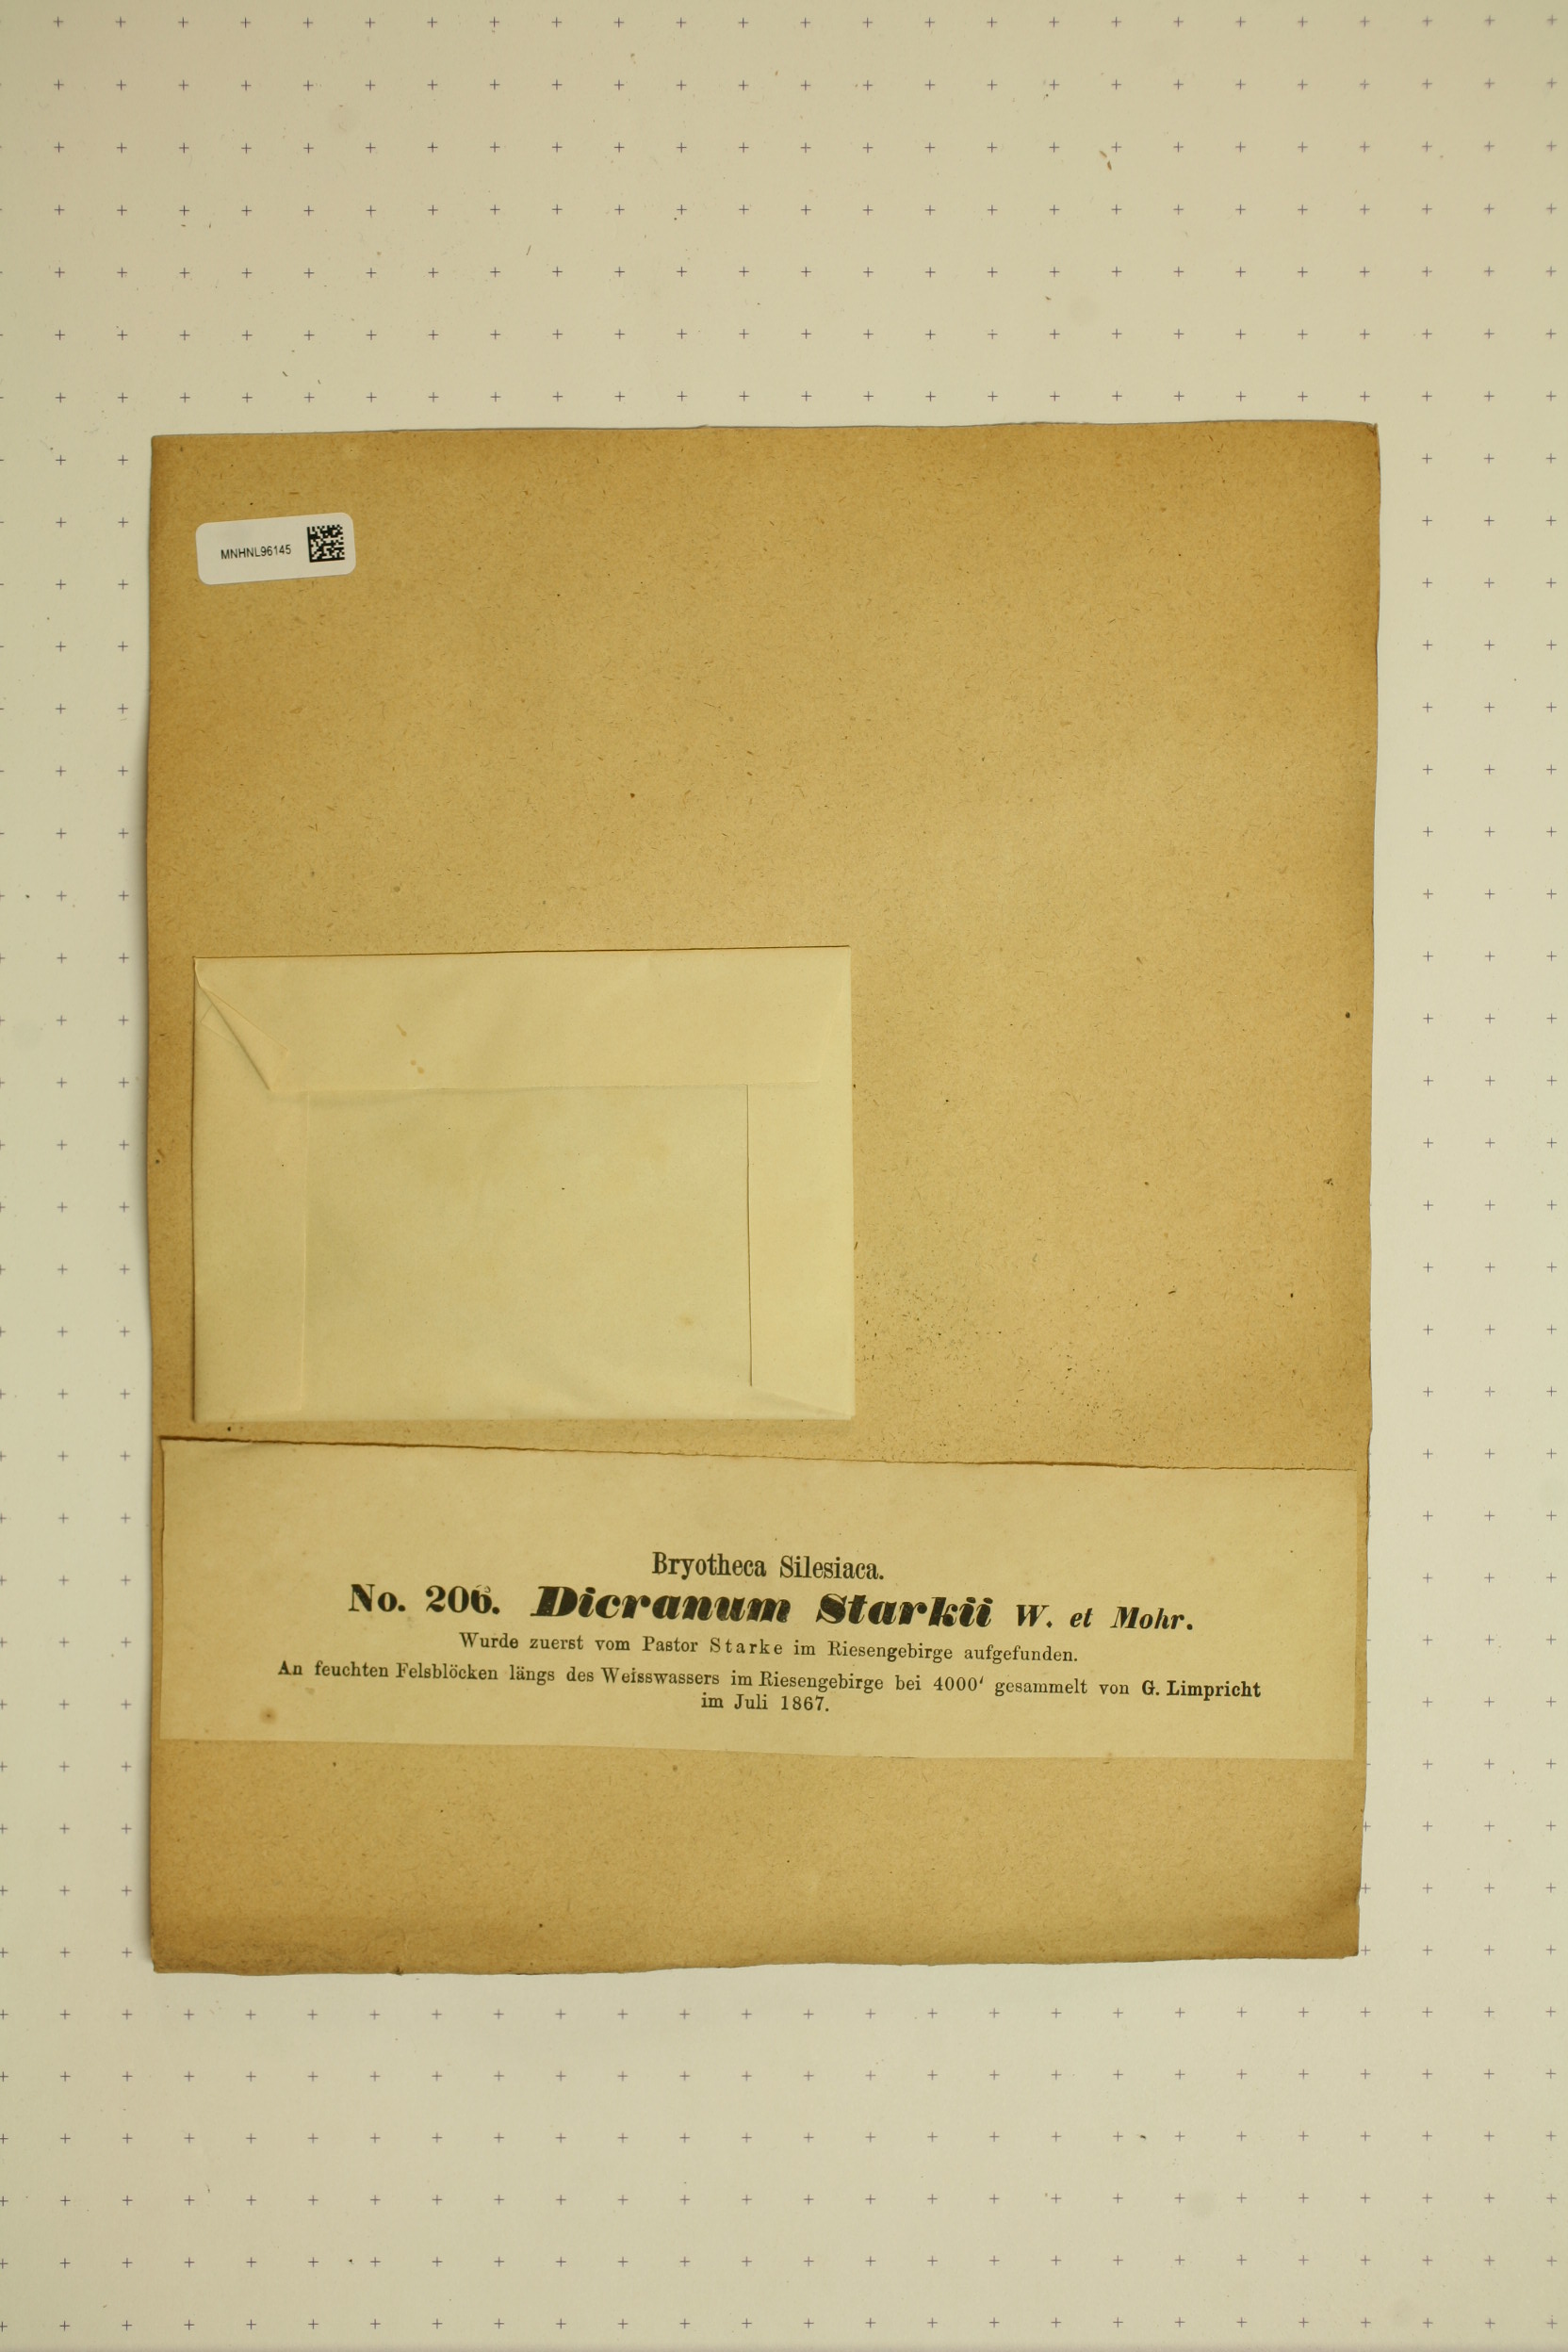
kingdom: Plantae
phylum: Bryophyta
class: Bryopsida
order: Dicranales
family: Rhabdoweisiaceae
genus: Arctoa
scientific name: Arctoa starkei
